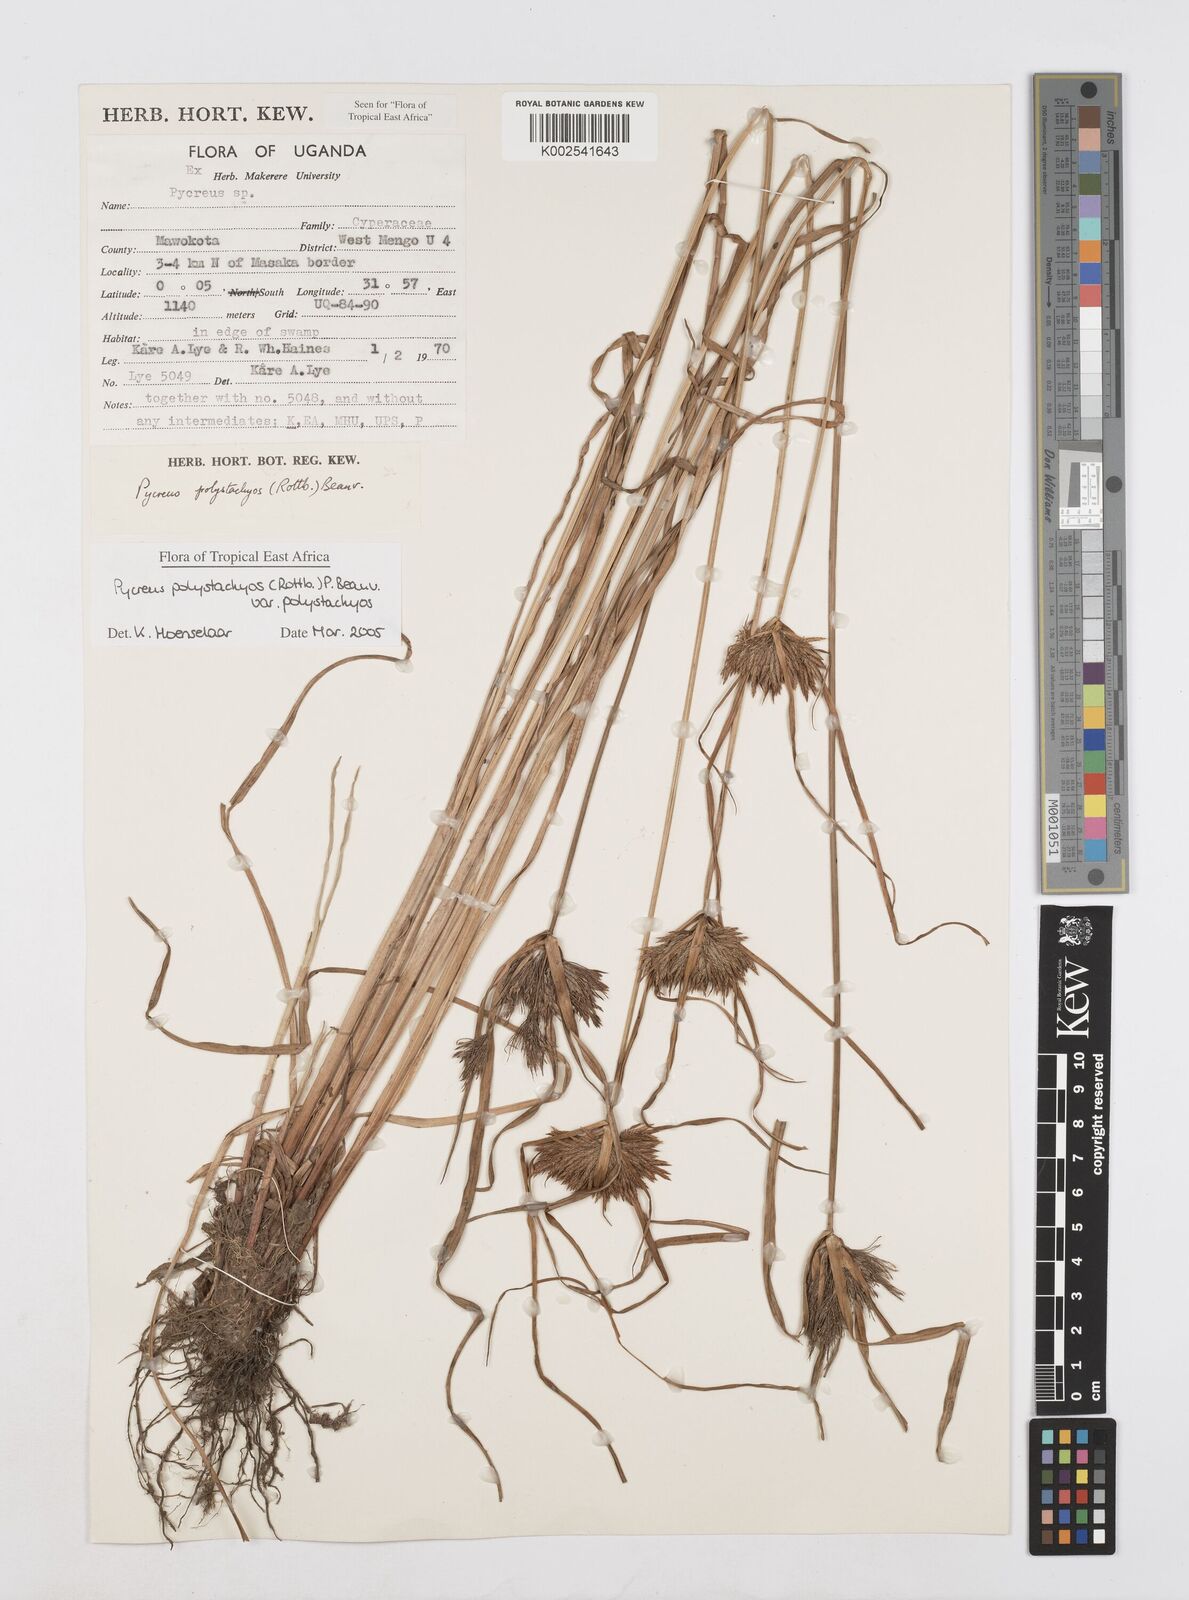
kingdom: Plantae
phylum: Tracheophyta
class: Liliopsida
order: Poales
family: Cyperaceae
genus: Cyperus
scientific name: Cyperus polystachyos
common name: Bunchy flat sedge
